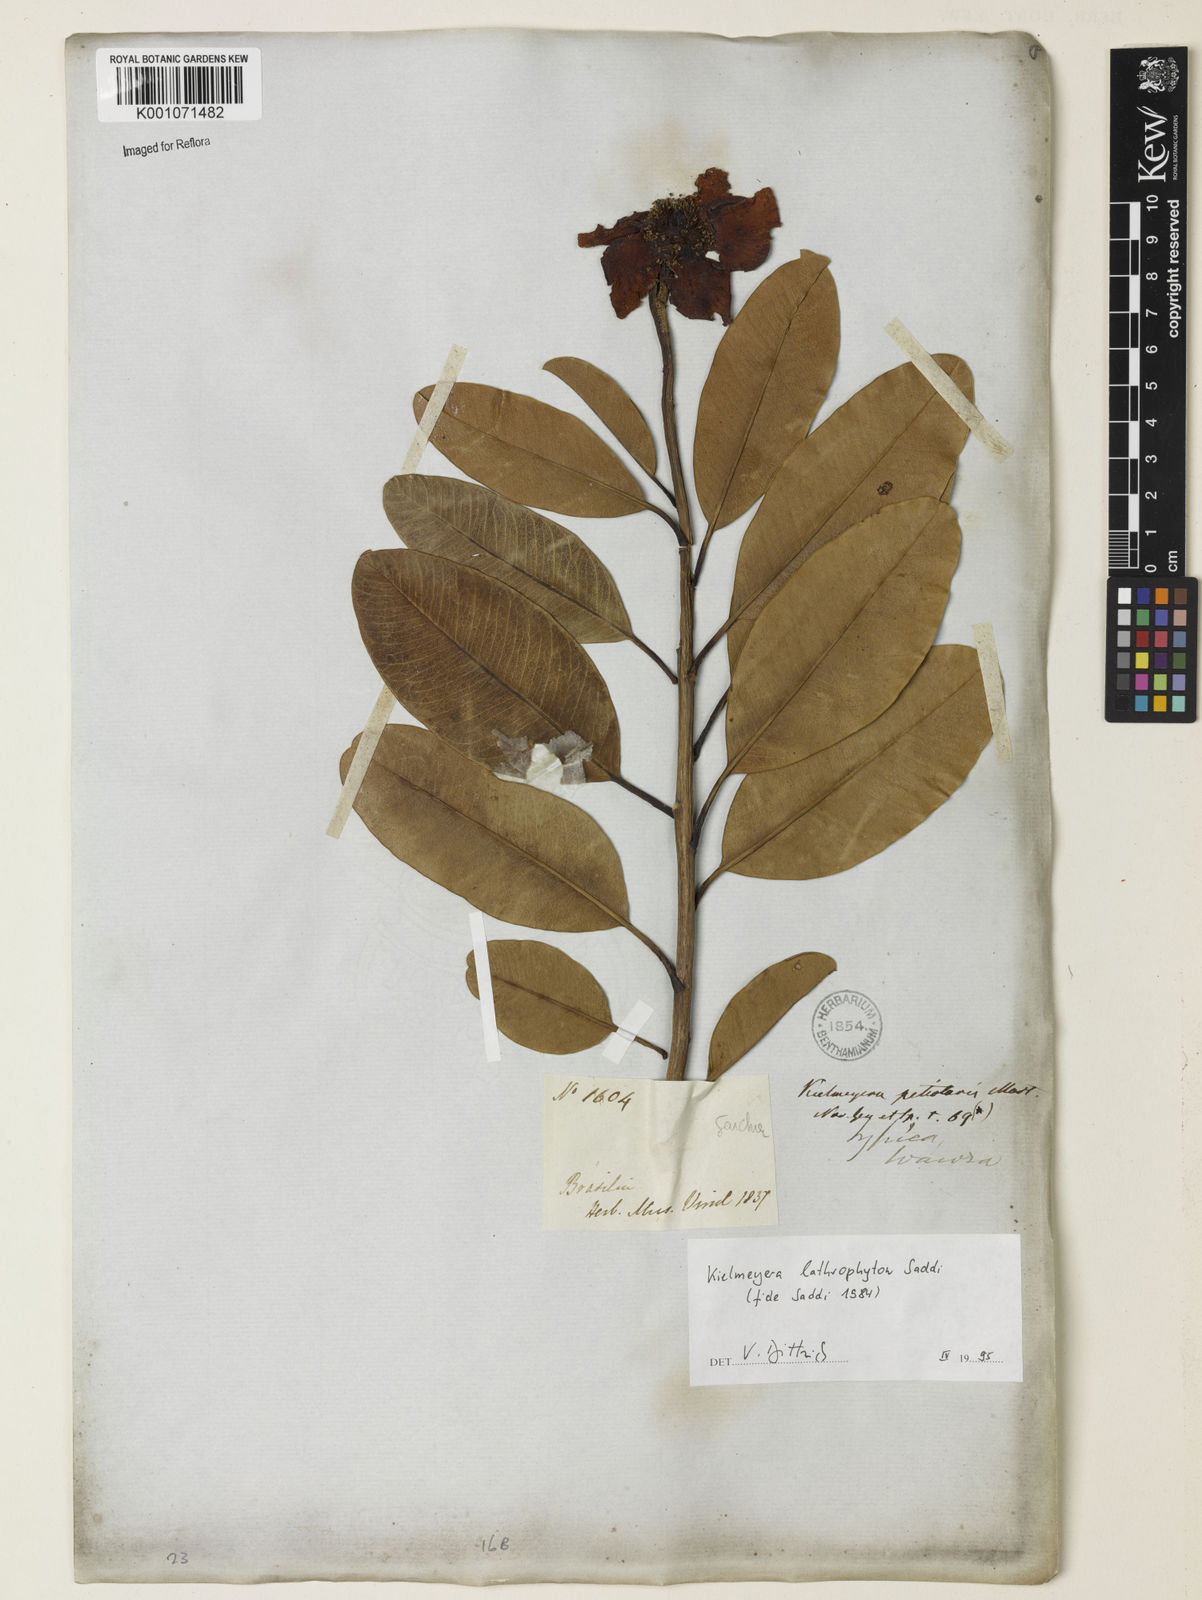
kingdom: Plantae
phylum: Tracheophyta
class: Magnoliopsida
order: Malpighiales
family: Calophyllaceae
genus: Kielmeyera
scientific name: Kielmeyera lathrophyton
